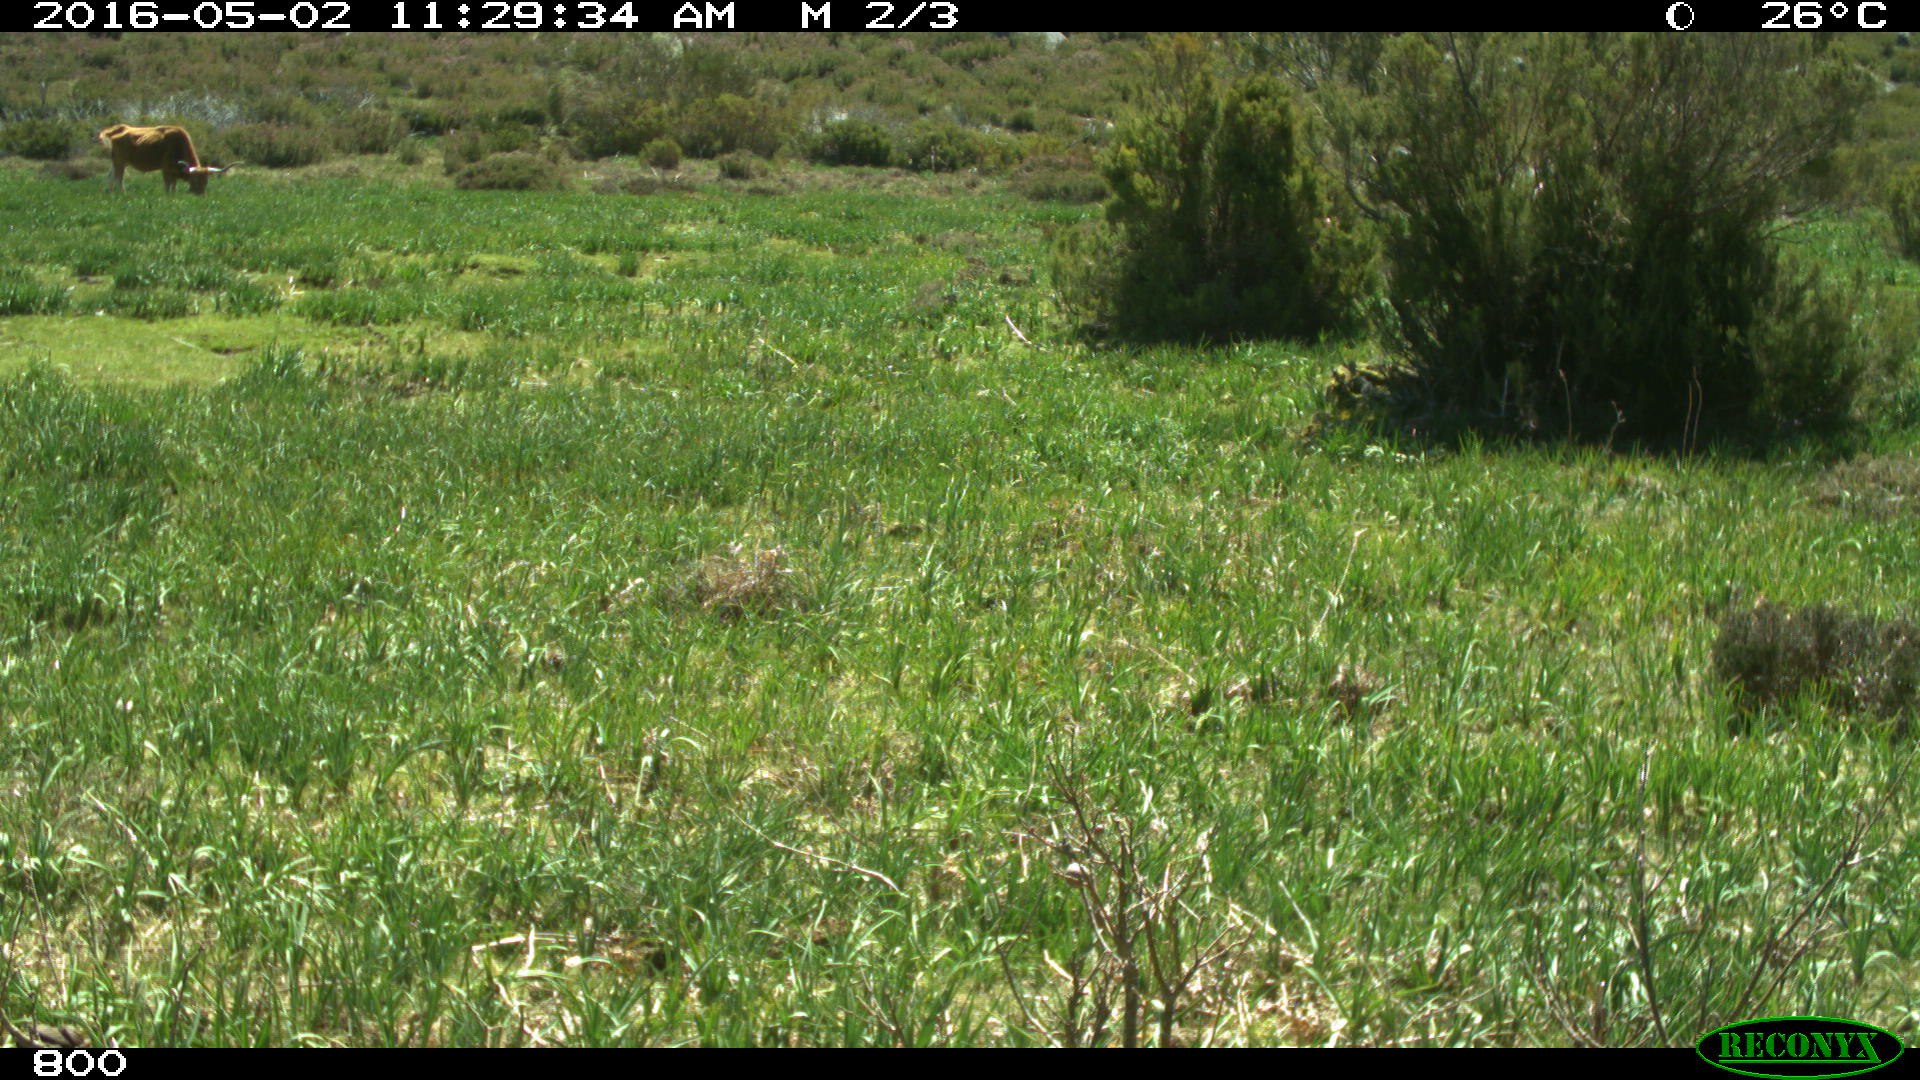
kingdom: Animalia
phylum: Chordata
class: Mammalia
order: Perissodactyla
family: Equidae
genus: Equus
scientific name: Equus caballus
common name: Horse
